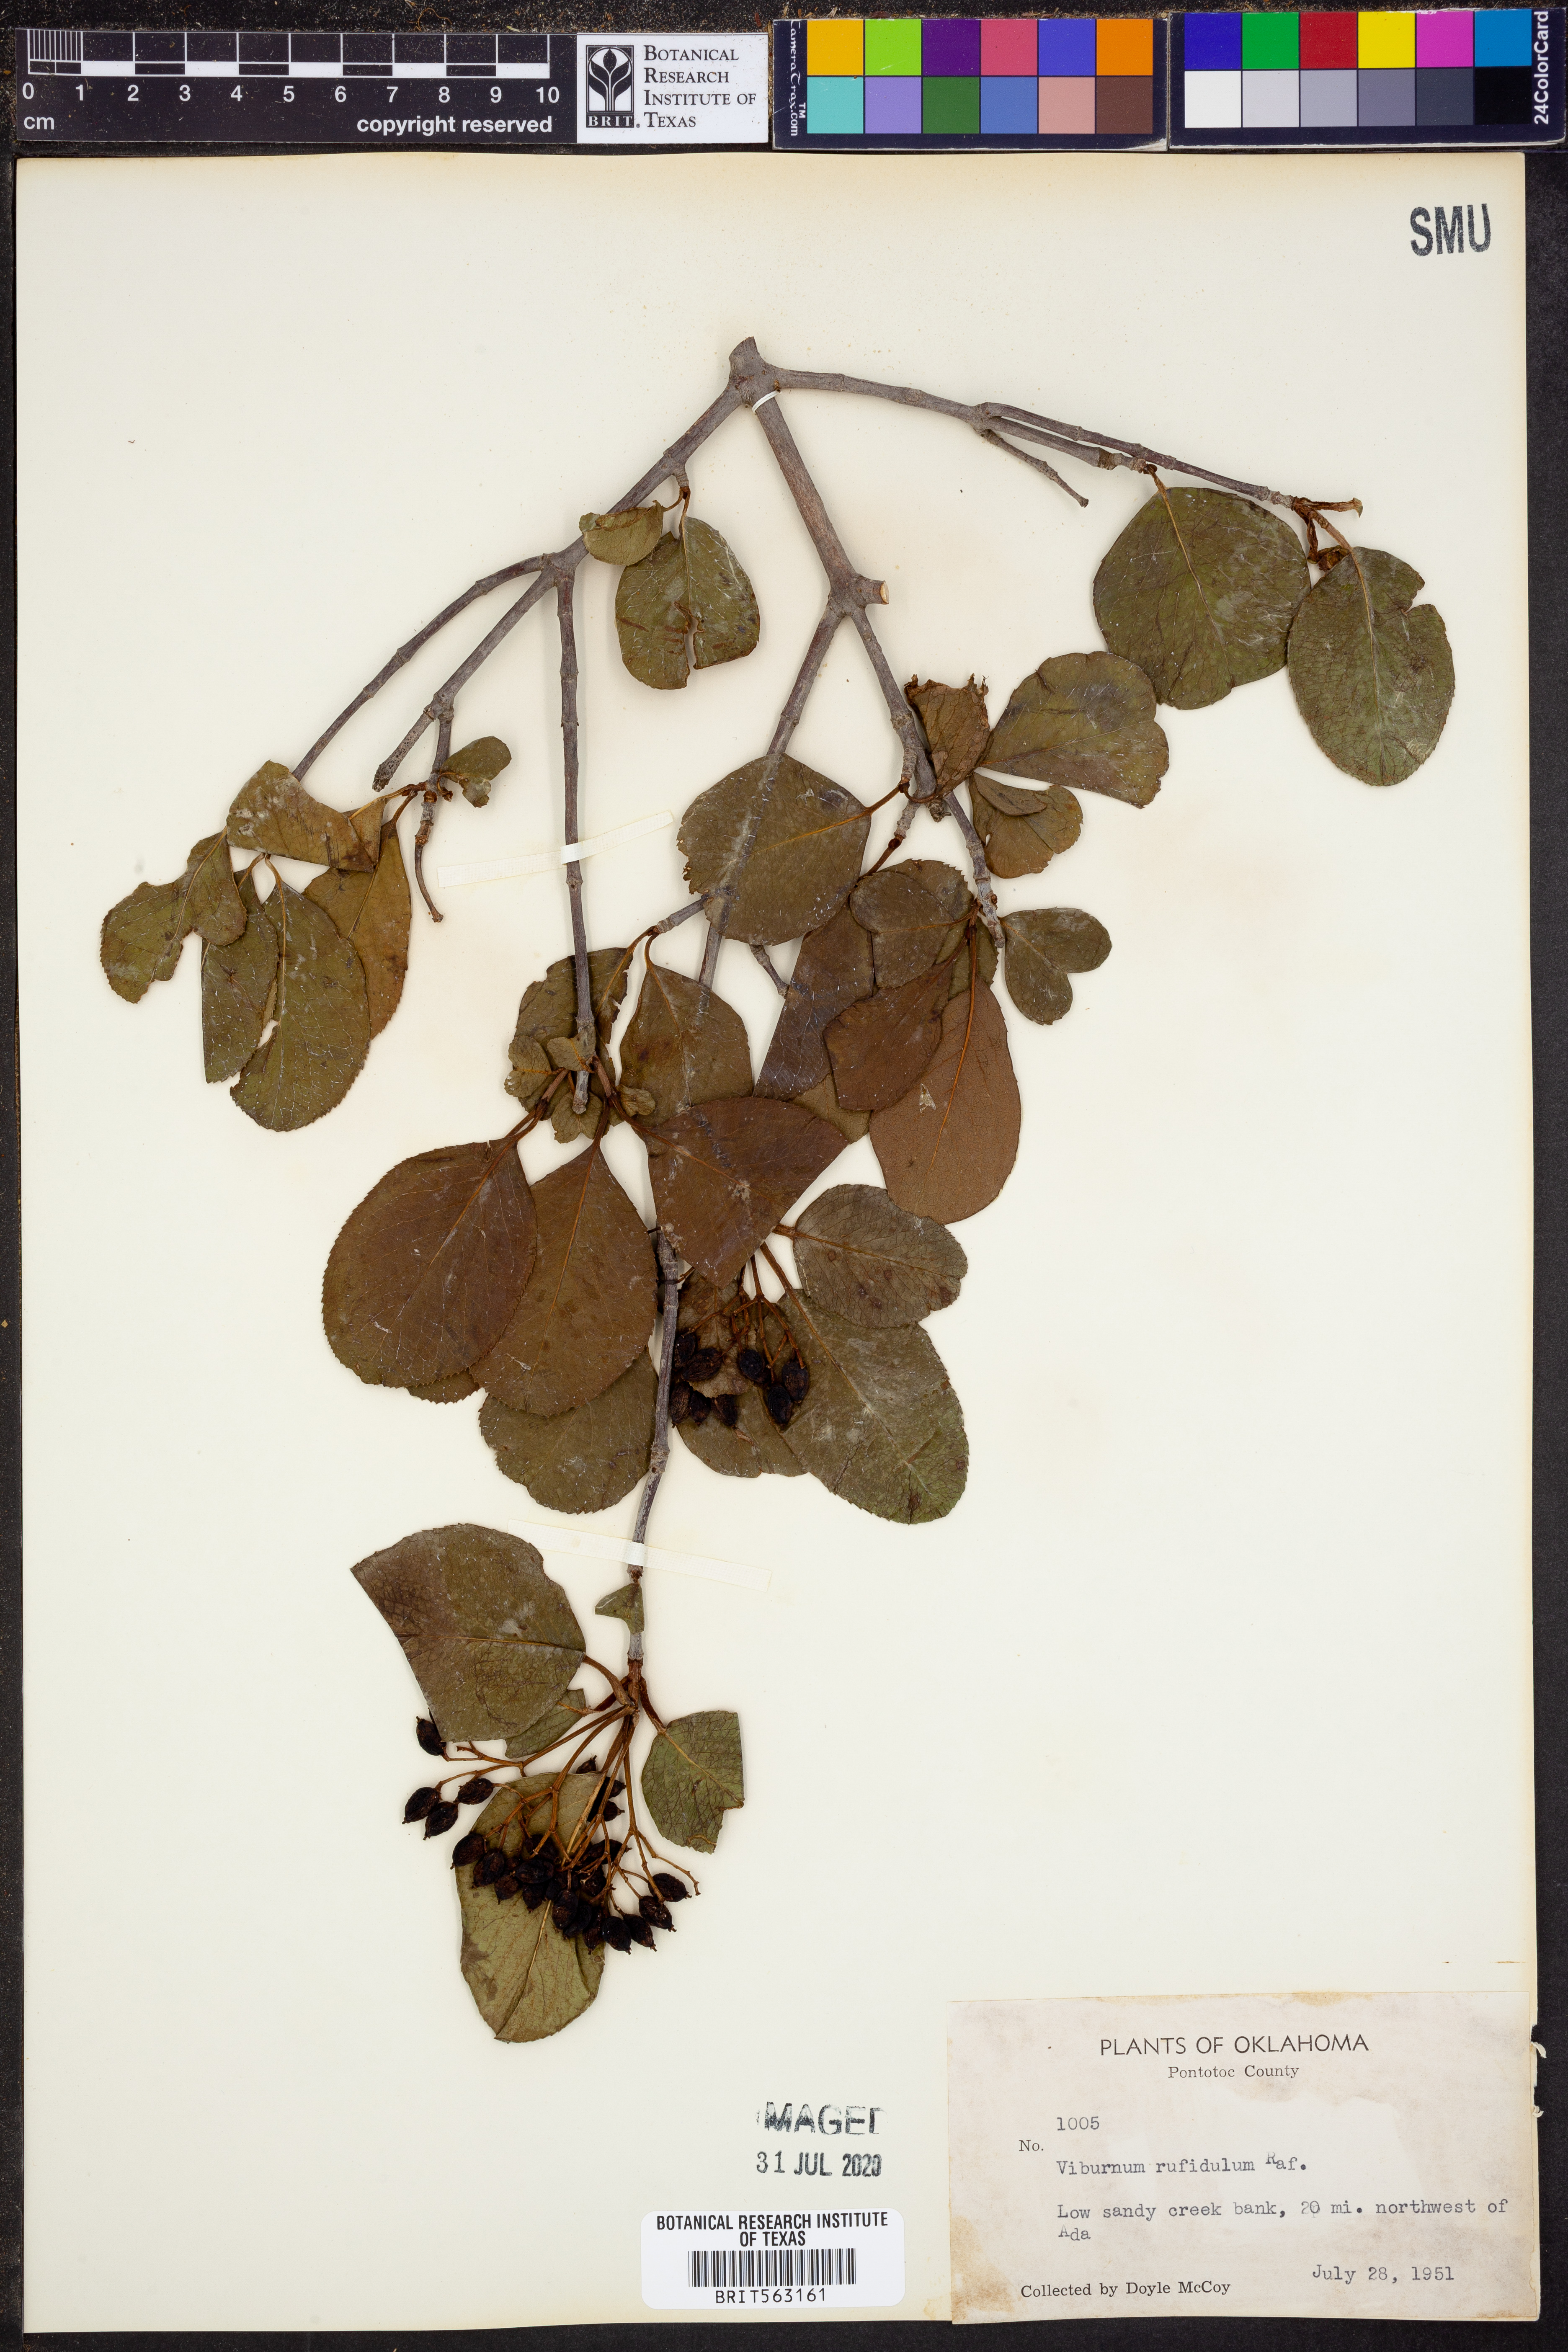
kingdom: Plantae
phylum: Tracheophyta
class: Magnoliopsida
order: Dipsacales
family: Viburnaceae
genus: Viburnum
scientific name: Viburnum rufidulum
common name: Blue haw
